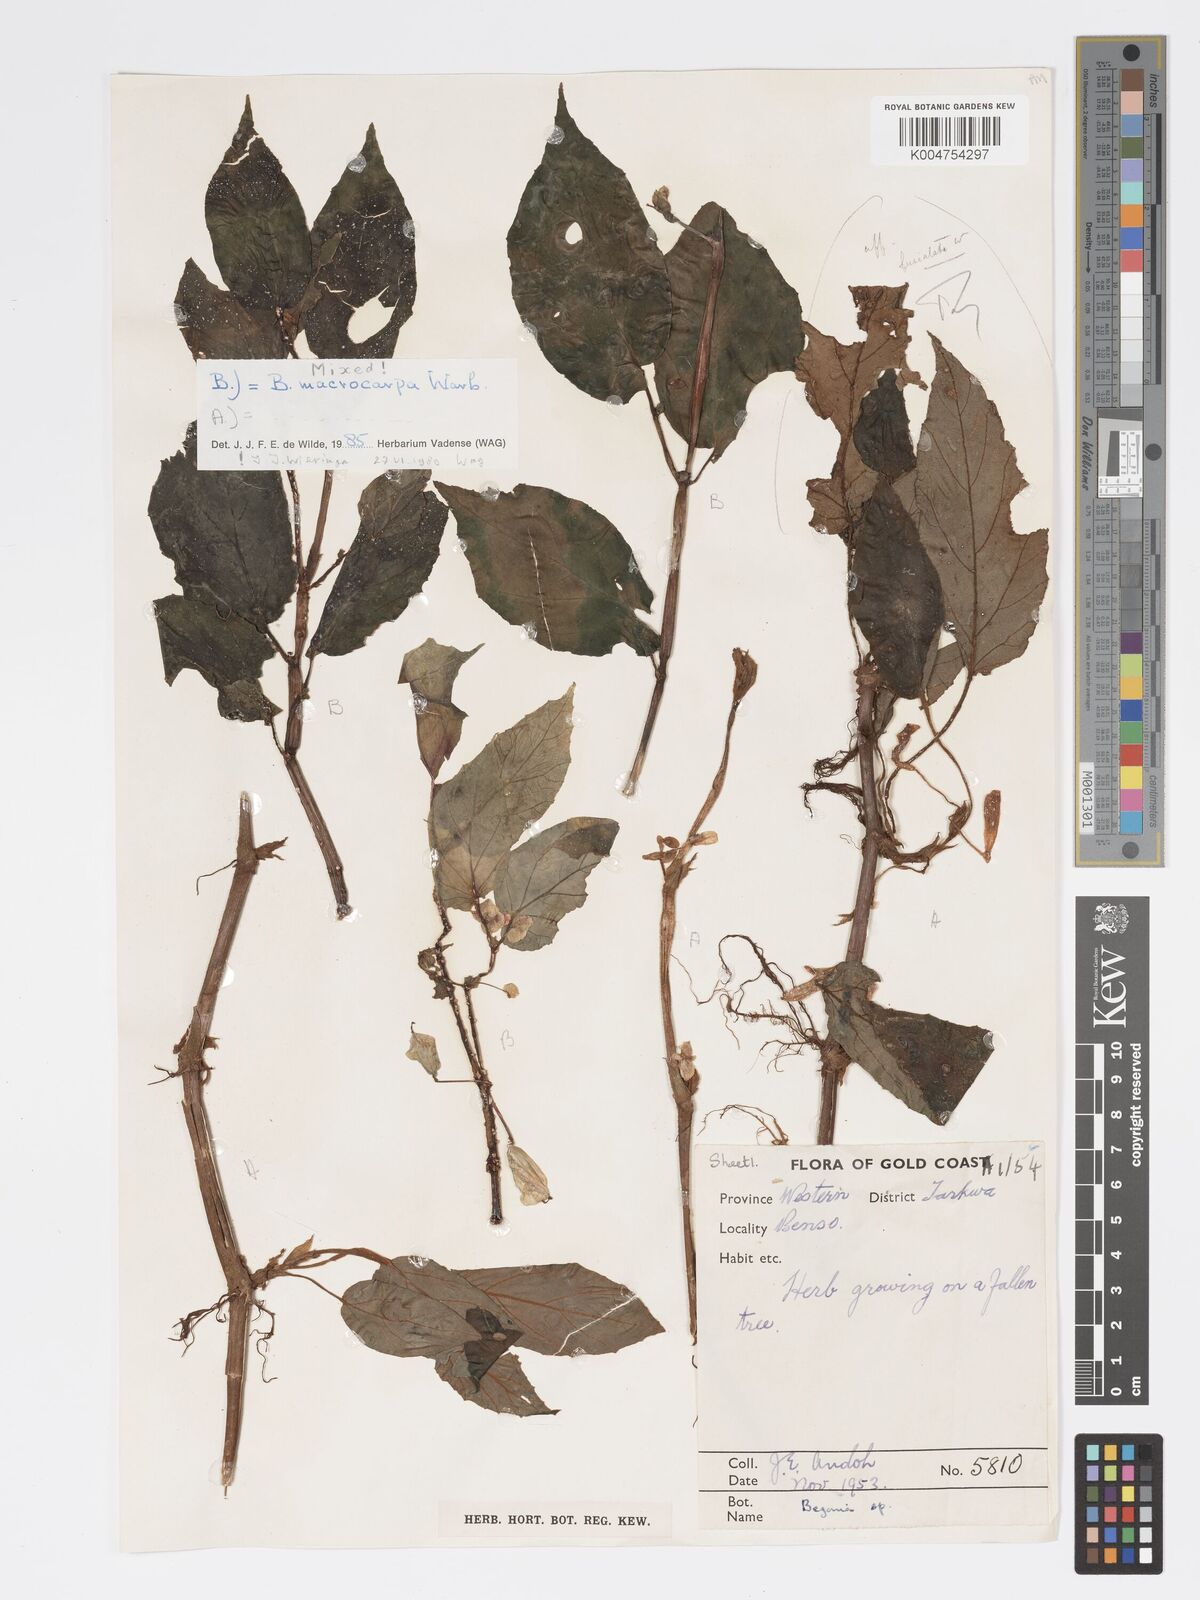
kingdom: Plantae
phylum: Tracheophyta
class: Magnoliopsida
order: Cucurbitales
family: Begoniaceae
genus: Begonia
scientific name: Begonia macrocarpa
